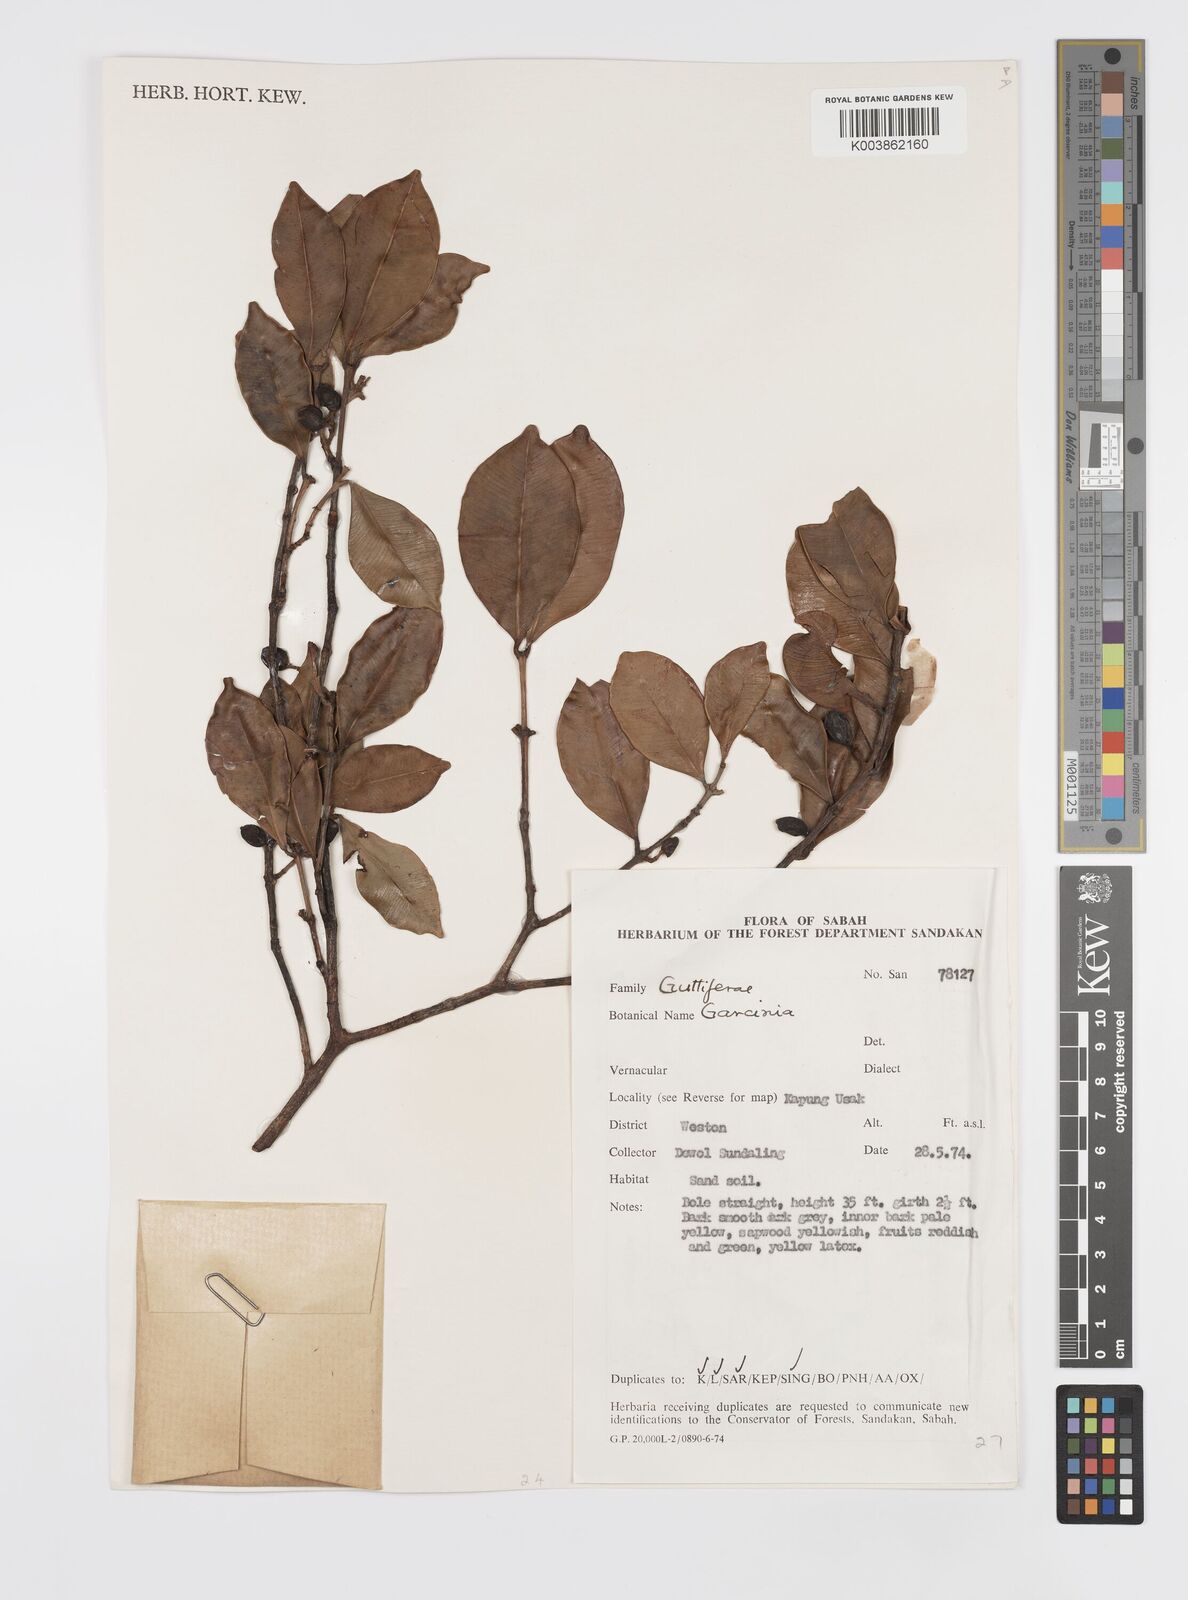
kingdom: Plantae
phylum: Tracheophyta
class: Magnoliopsida
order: Malpighiales
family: Clusiaceae
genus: Garcinia
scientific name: Garcinia
